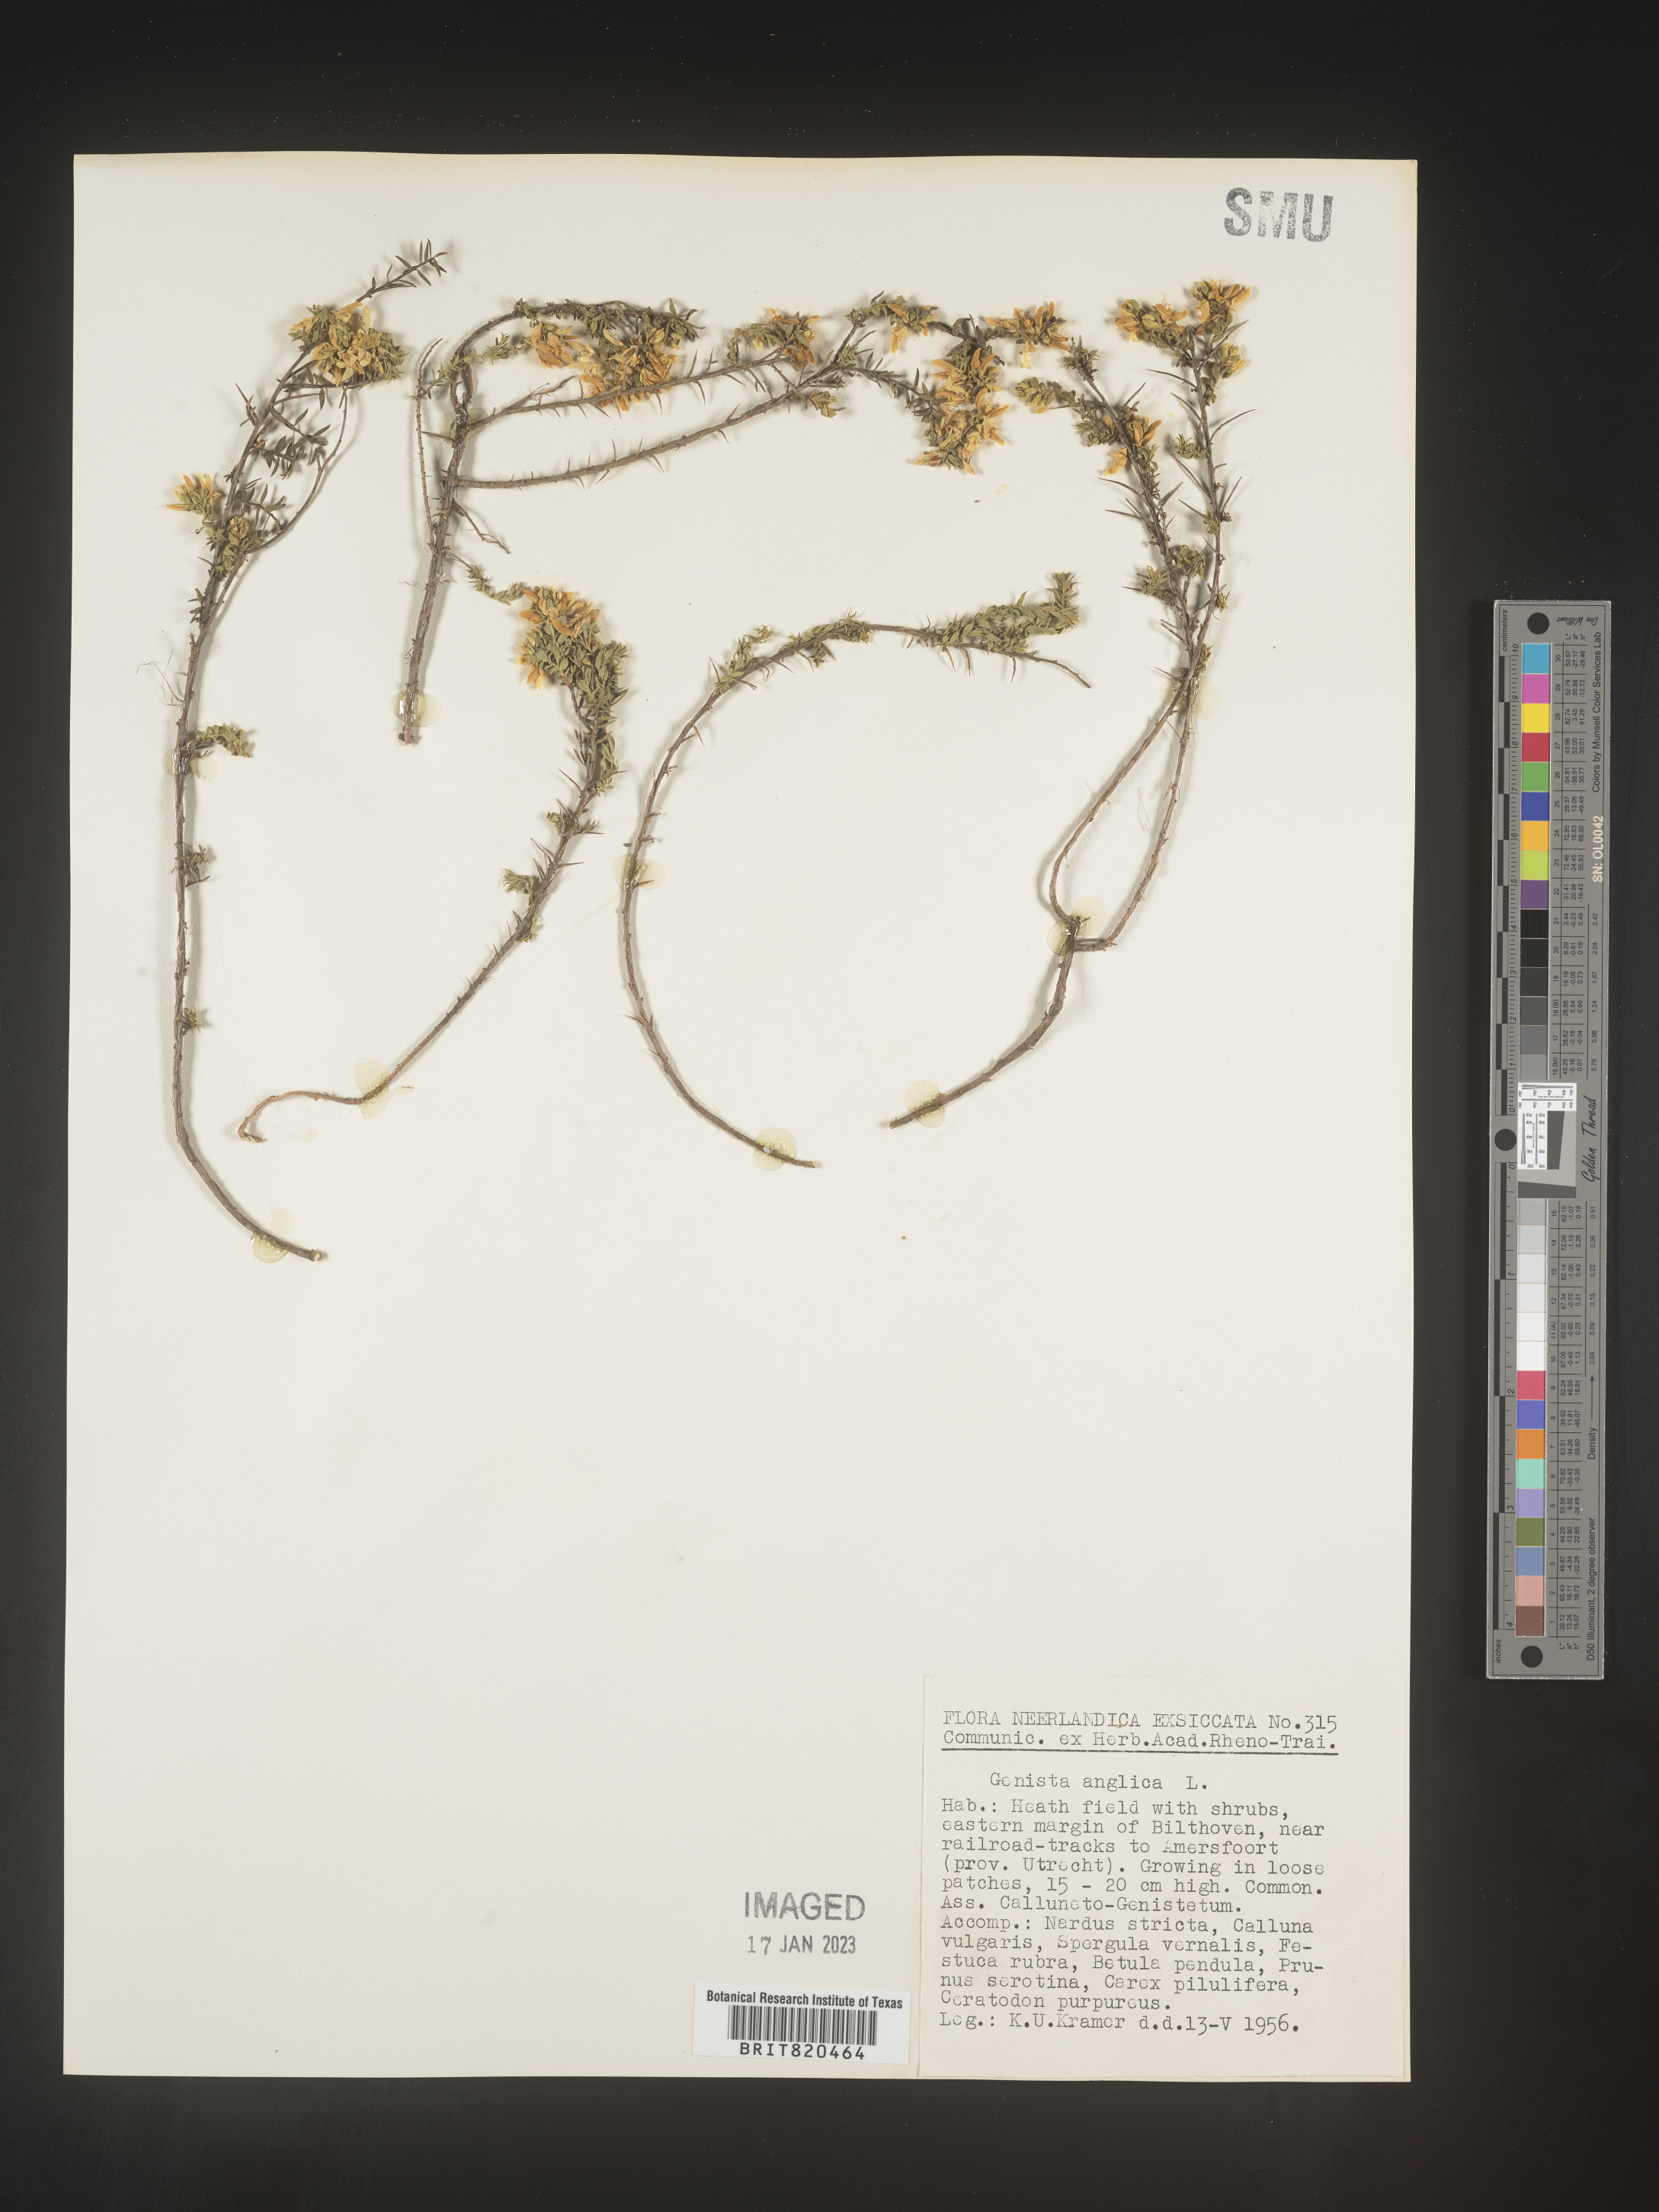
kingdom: Plantae
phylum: Tracheophyta
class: Magnoliopsida
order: Fabales
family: Fabaceae
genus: Genista
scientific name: Genista
